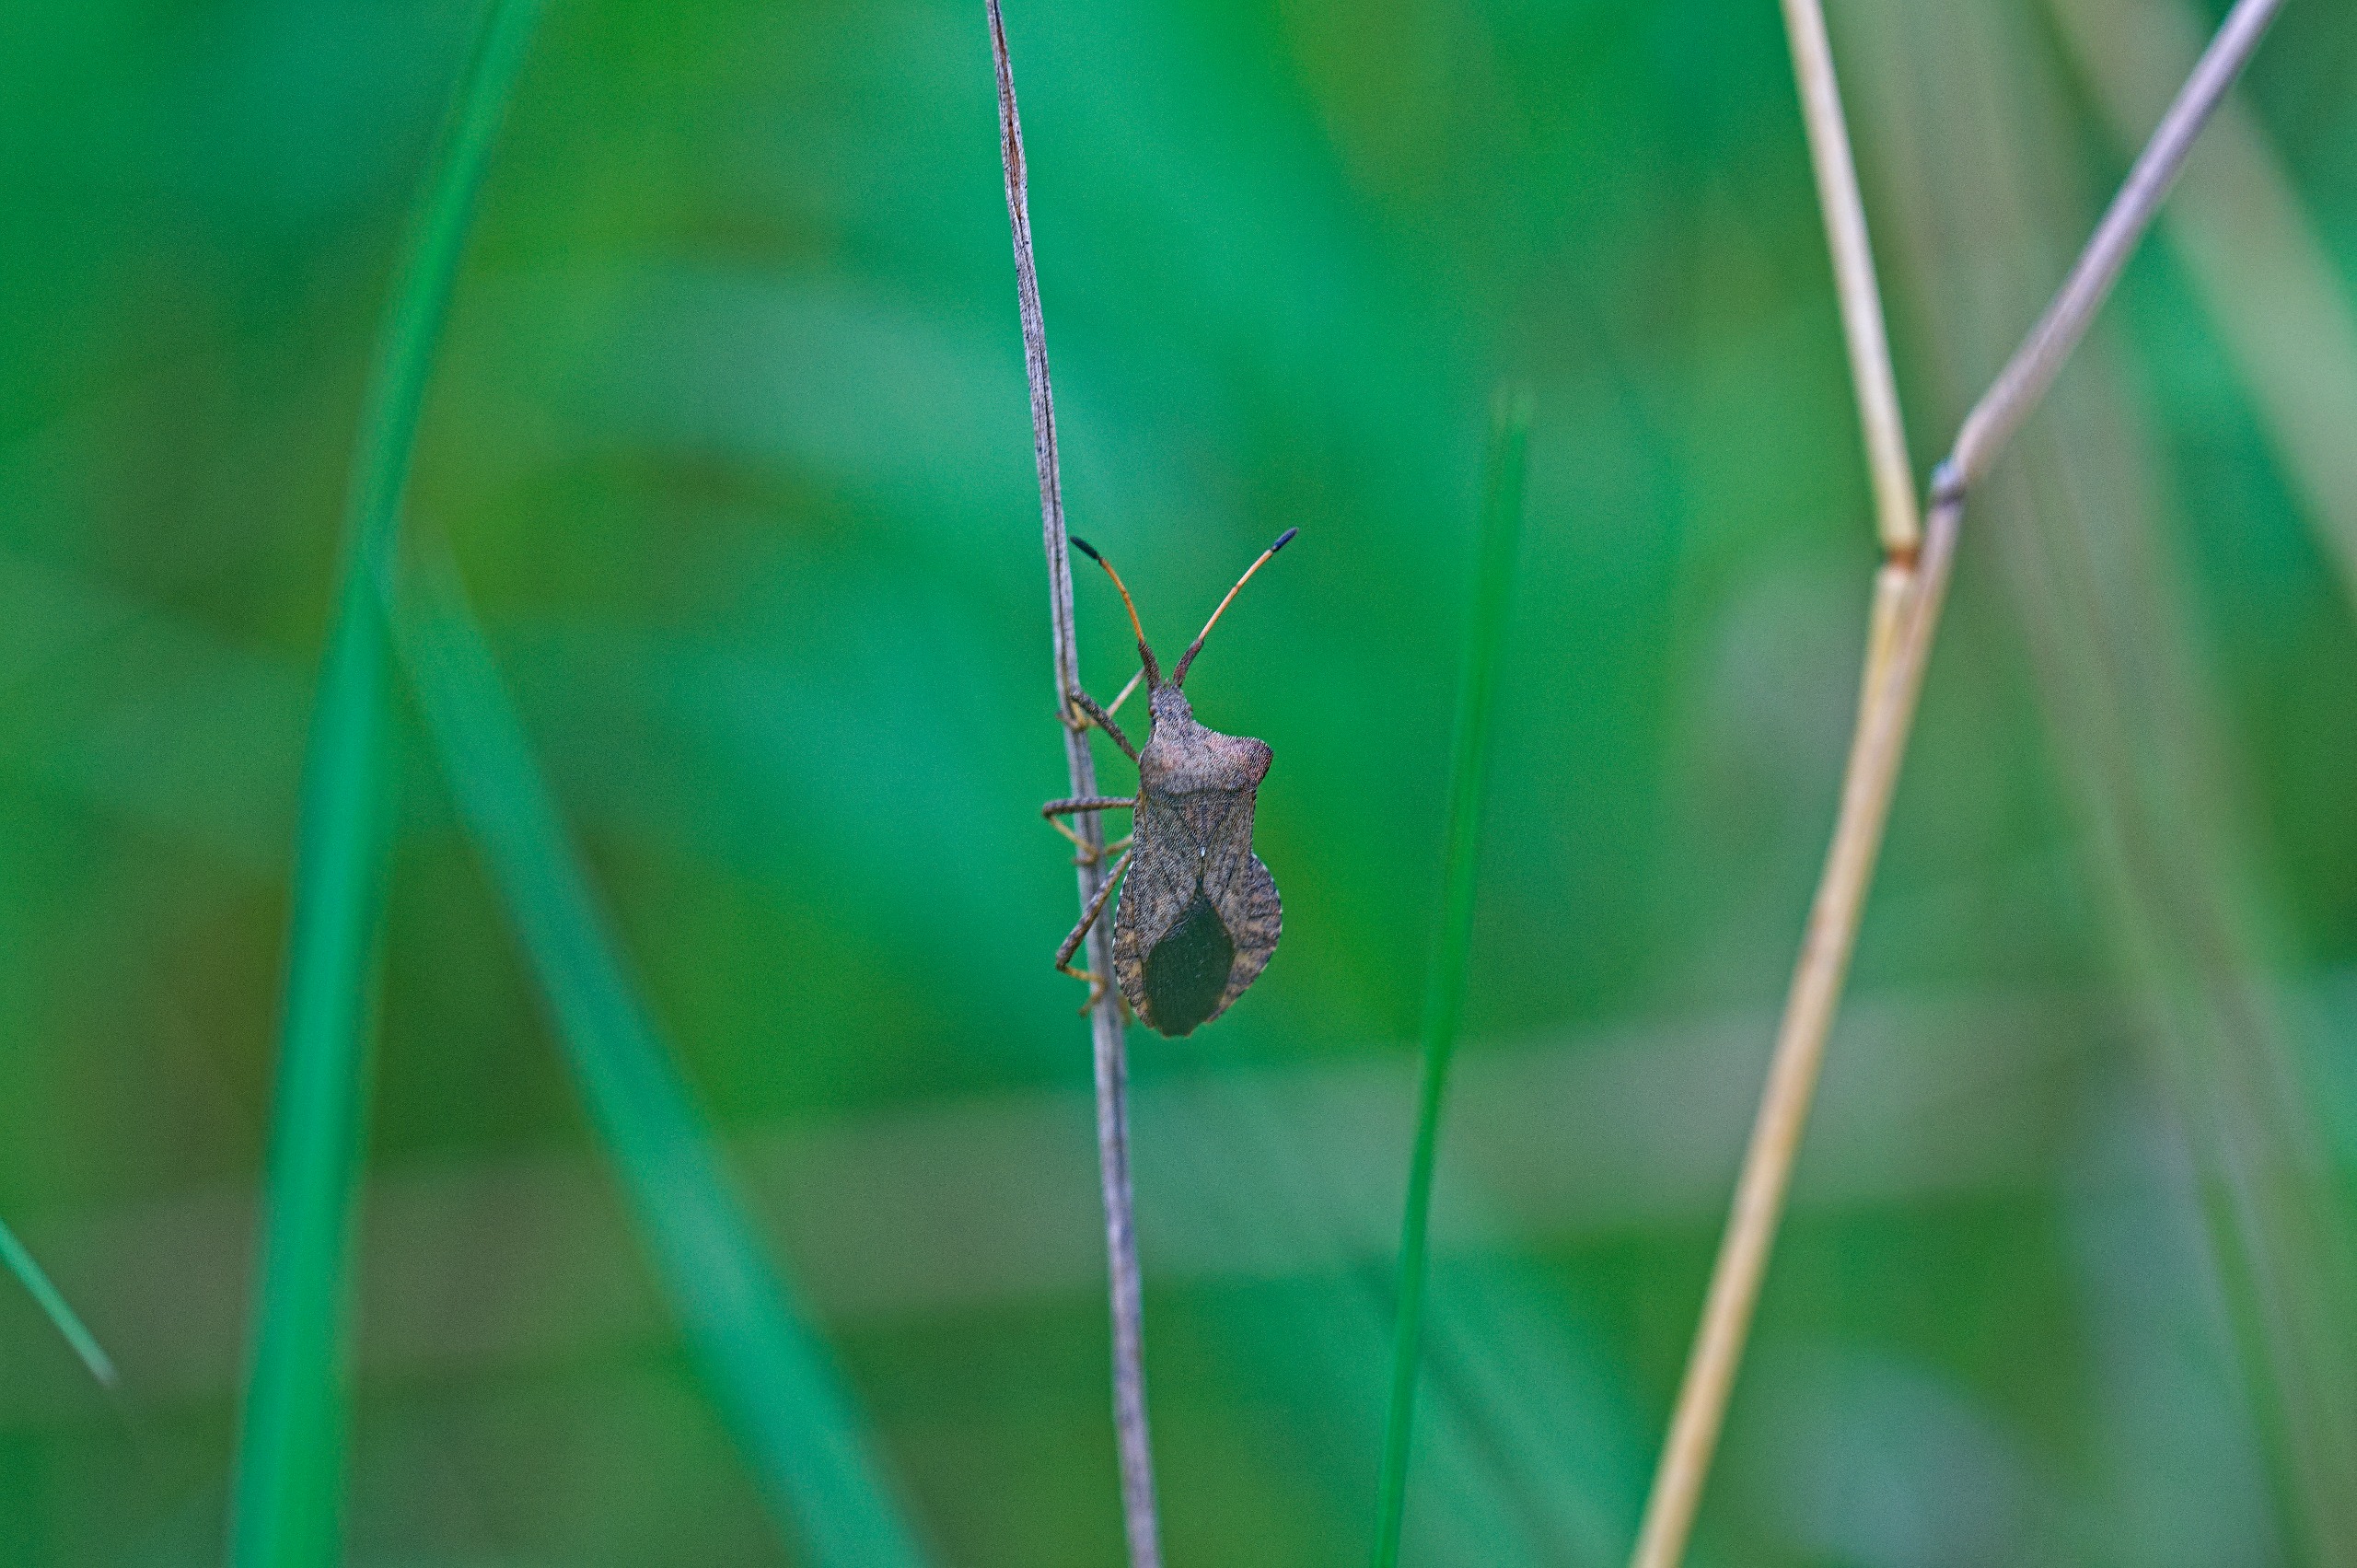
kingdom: Animalia
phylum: Arthropoda
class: Insecta
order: Hemiptera
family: Coreidae
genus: Coreus
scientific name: Coreus marginatus
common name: Skræppetæge
